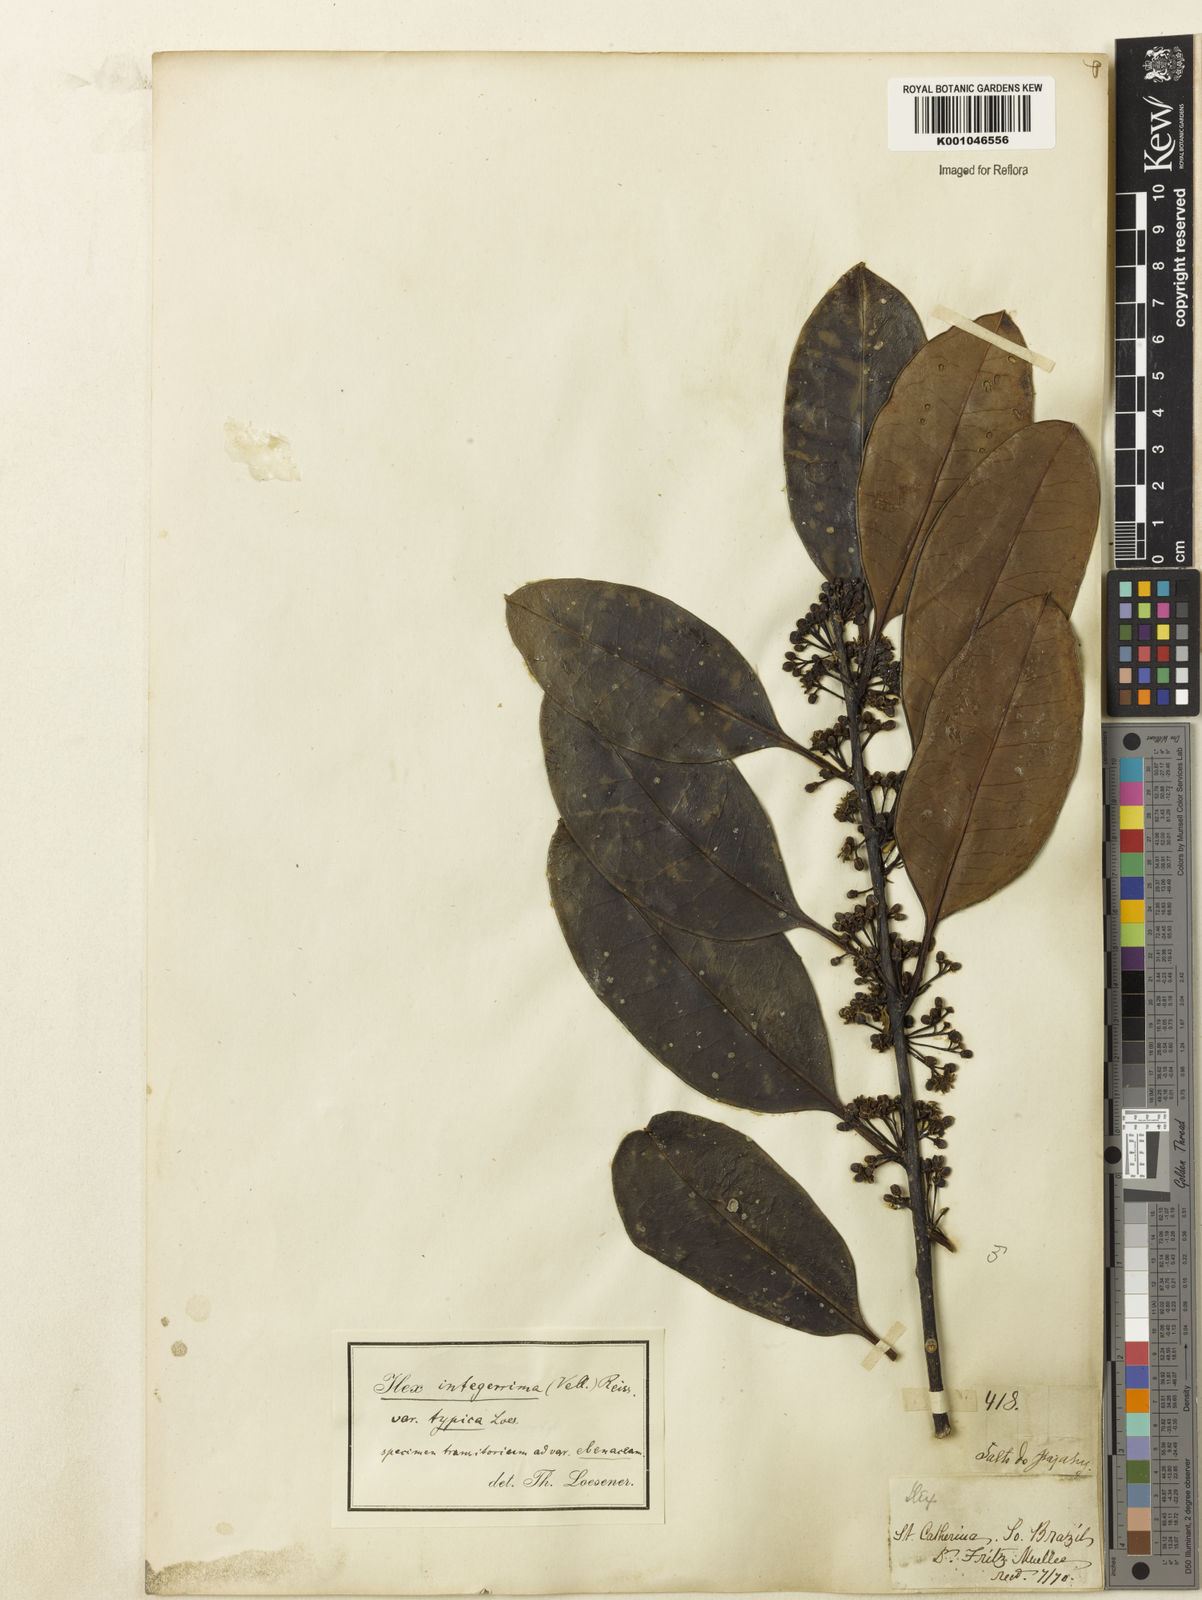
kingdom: Plantae
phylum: Tracheophyta
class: Magnoliopsida
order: Aquifoliales
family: Aquifoliaceae
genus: Ilex
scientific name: Ilex integerrima
